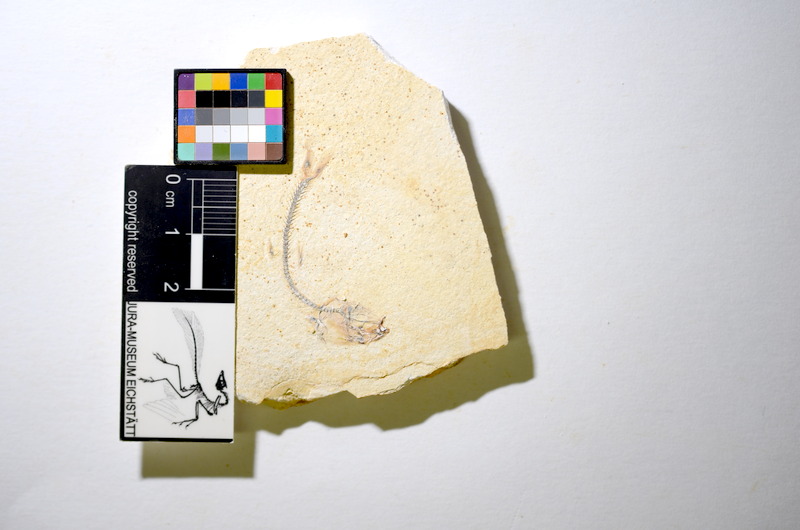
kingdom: Animalia
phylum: Chordata
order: Salmoniformes
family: Orthogonikleithridae
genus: Orthogonikleithrus
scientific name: Orthogonikleithrus hoelli
